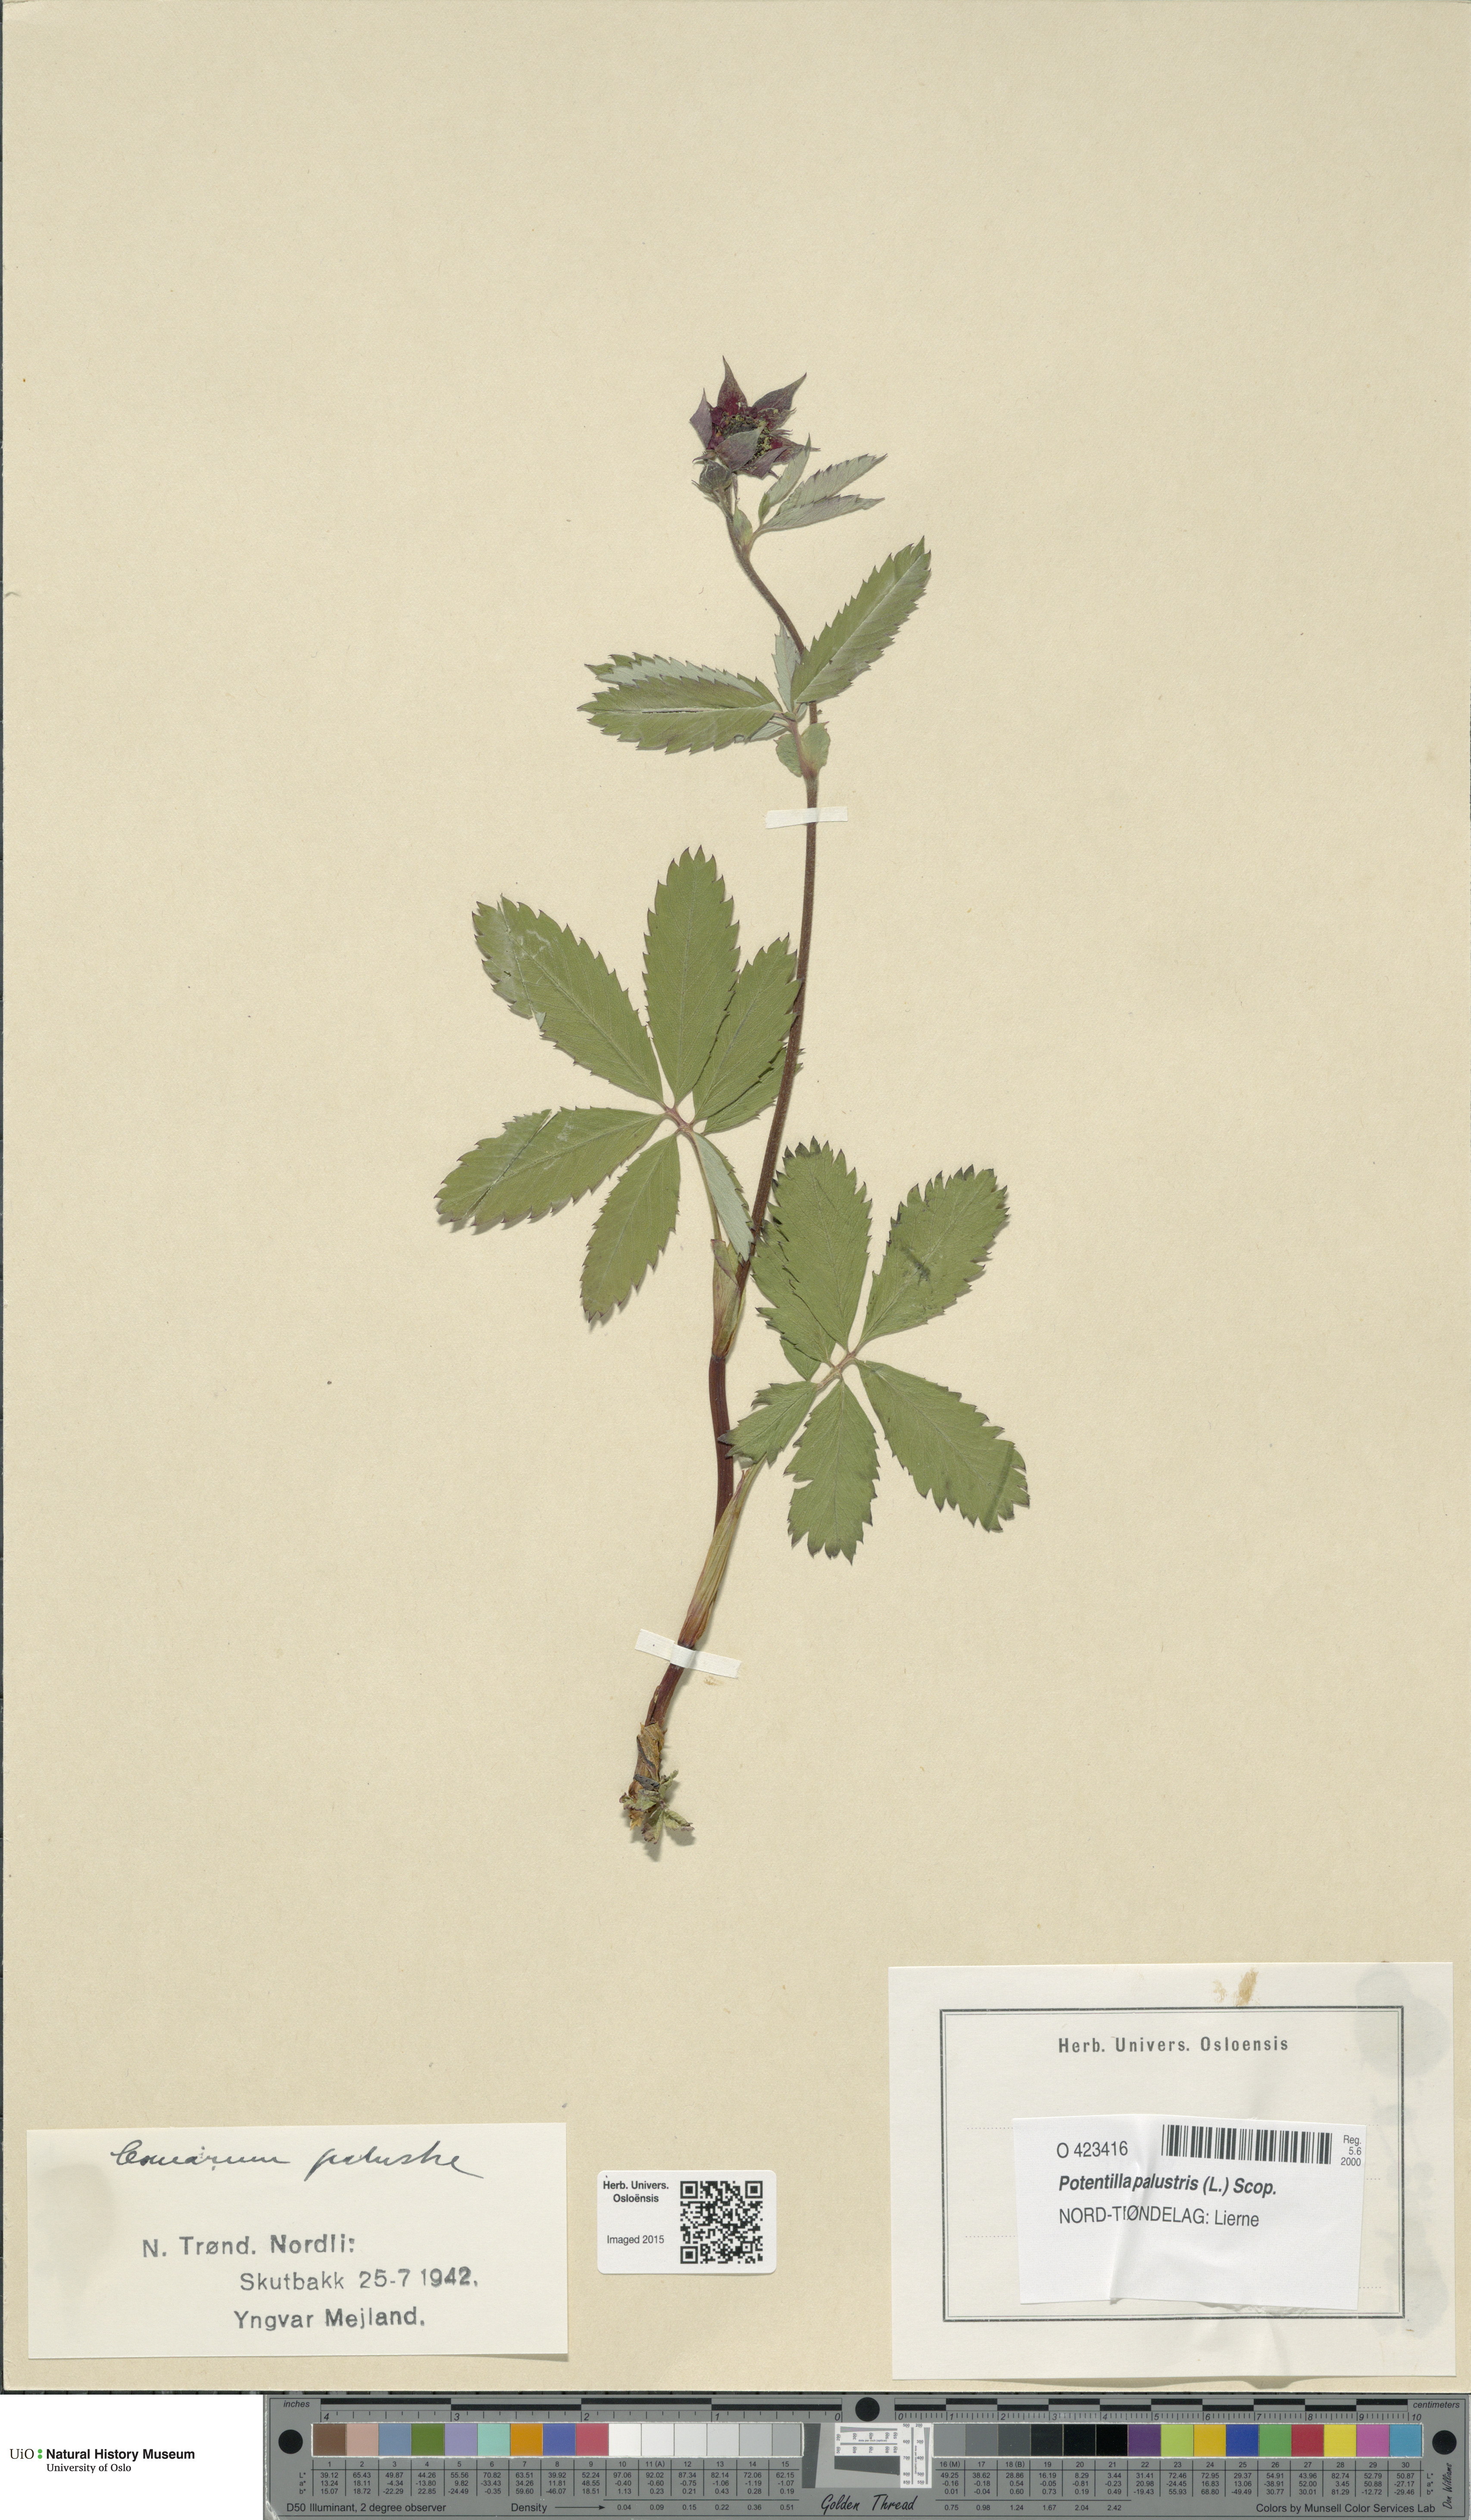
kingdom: Plantae
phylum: Tracheophyta
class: Magnoliopsida
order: Rosales
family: Rosaceae
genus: Comarum
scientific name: Comarum palustre
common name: Marsh cinquefoil
